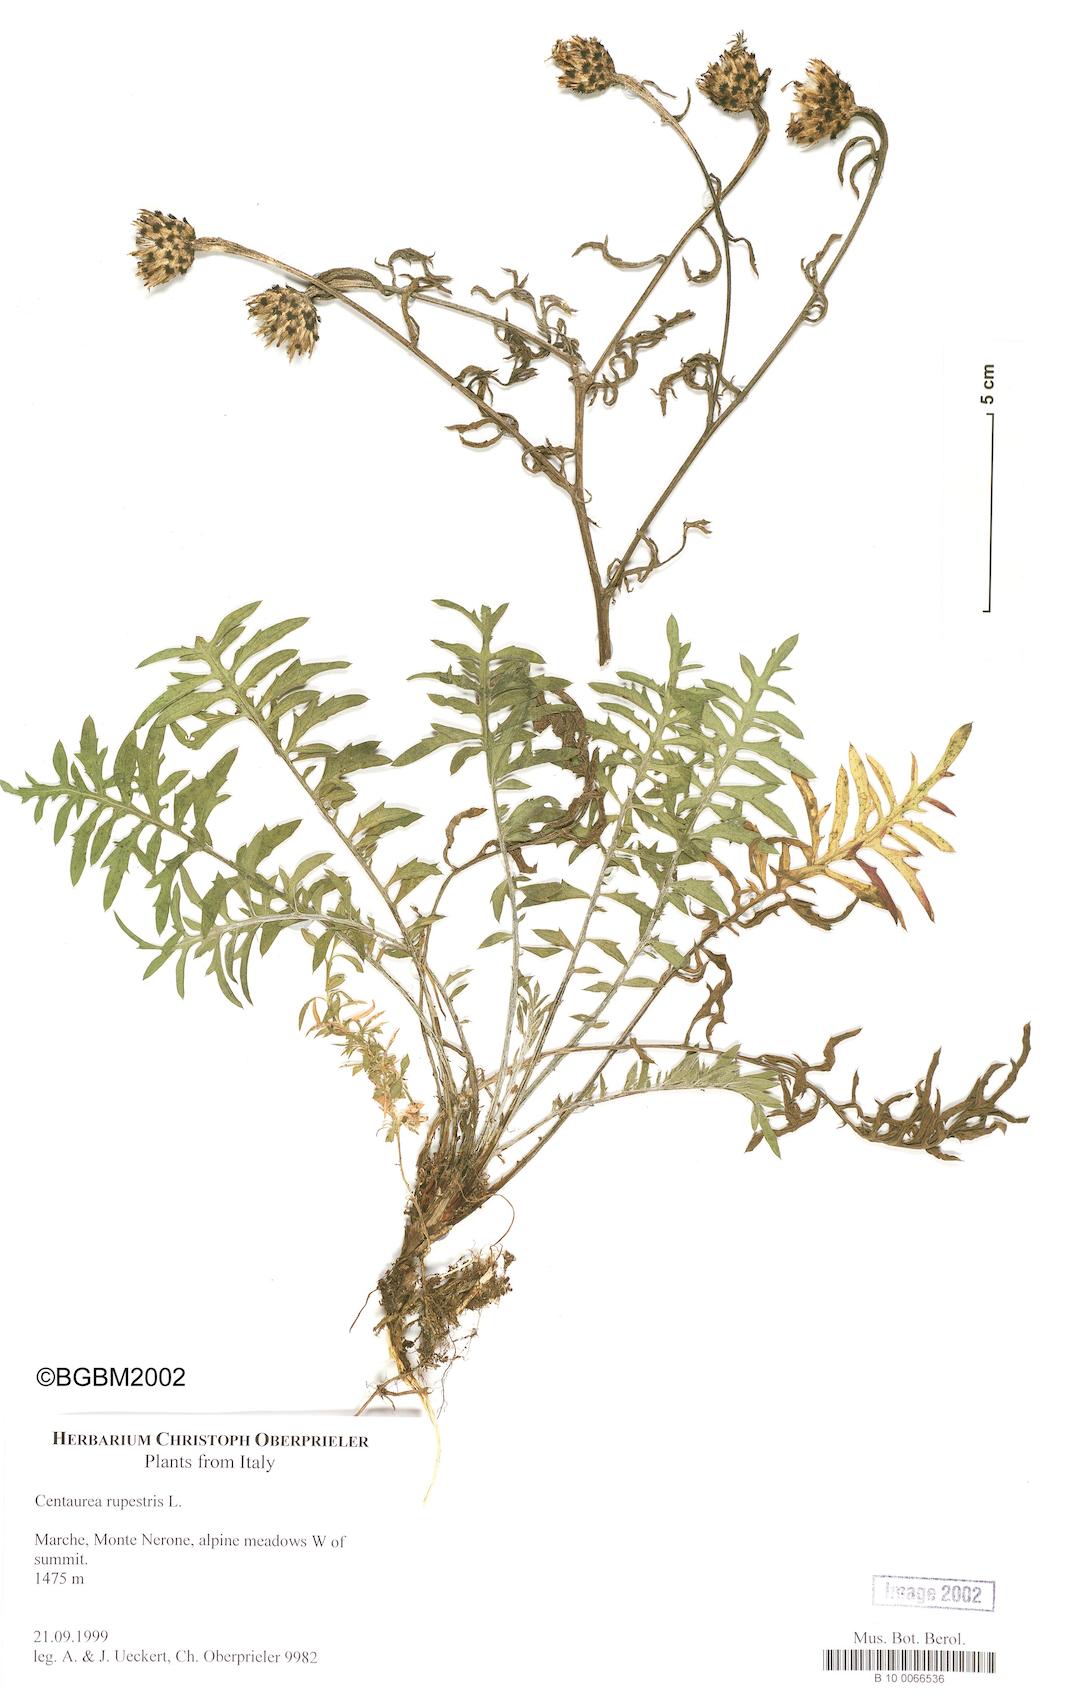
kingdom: Plantae
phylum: Tracheophyta
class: Magnoliopsida
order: Asterales
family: Asteraceae
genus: Centaurea
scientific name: Centaurea rupestris
